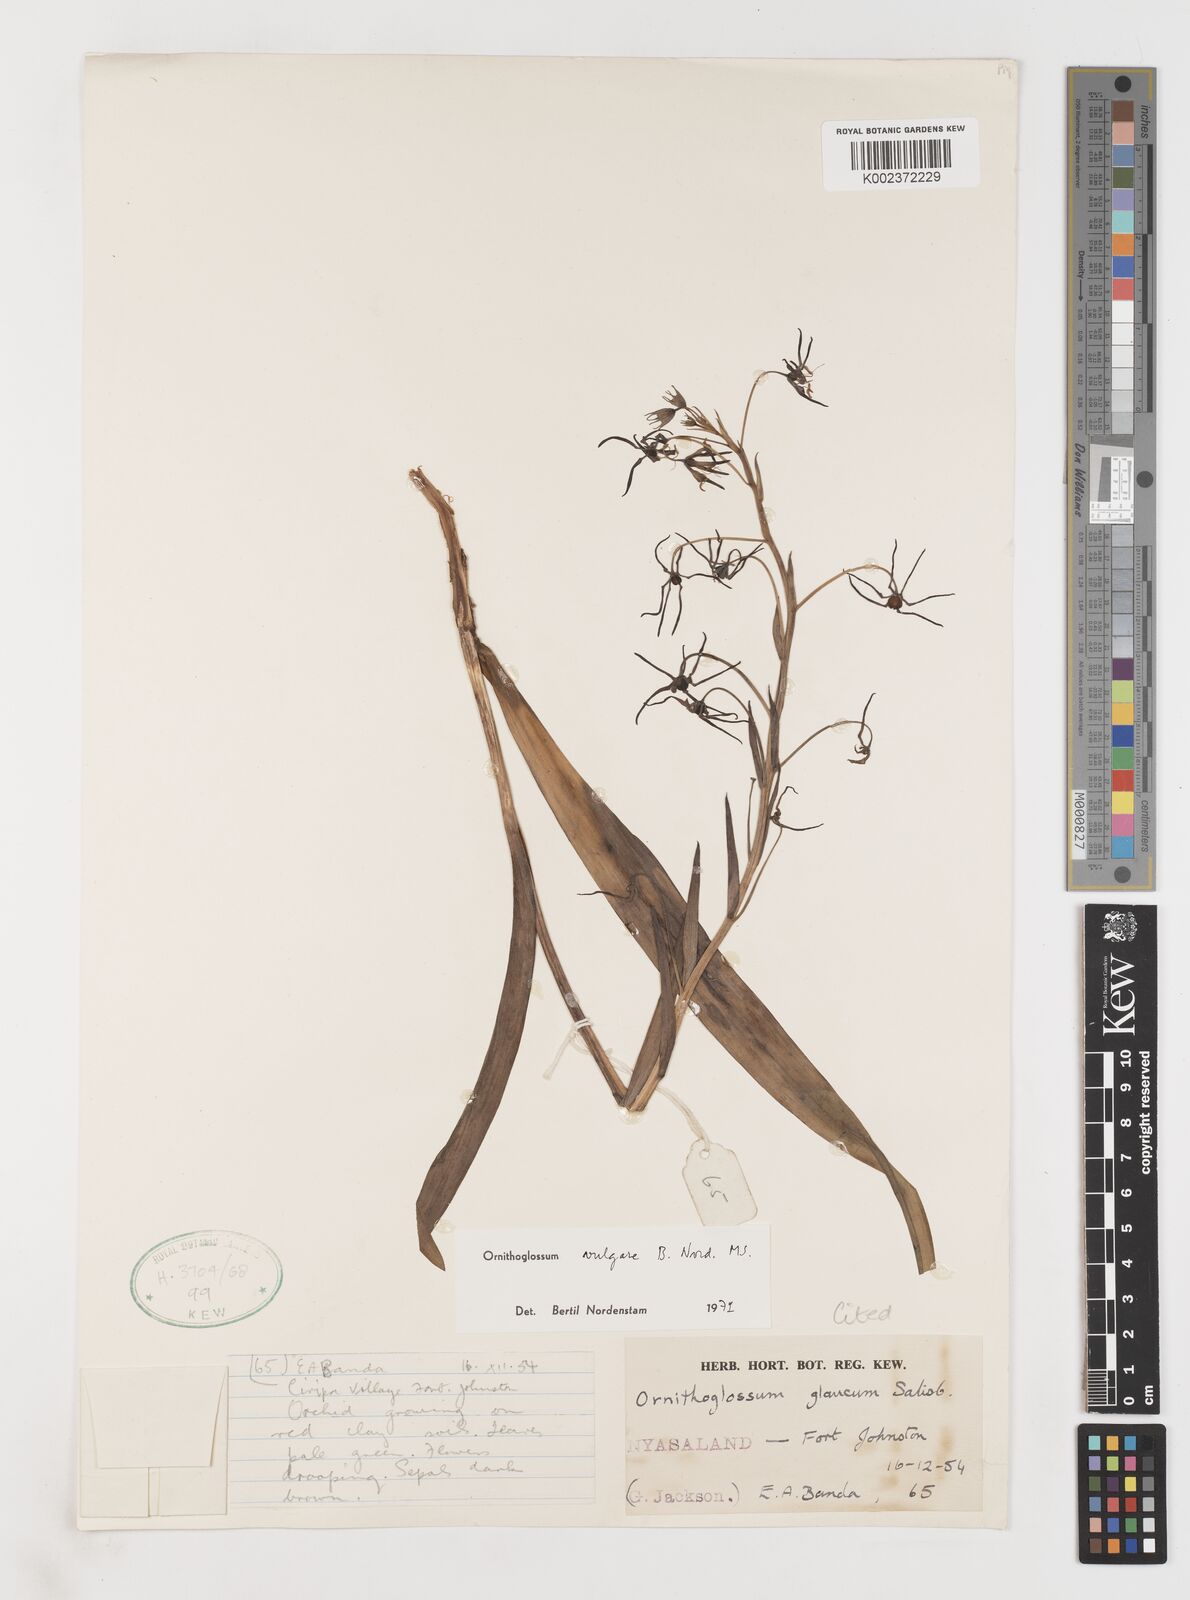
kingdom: Plantae
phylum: Tracheophyta
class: Liliopsida
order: Liliales
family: Colchicaceae
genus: Ornithoglossum
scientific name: Ornithoglossum vulgare
